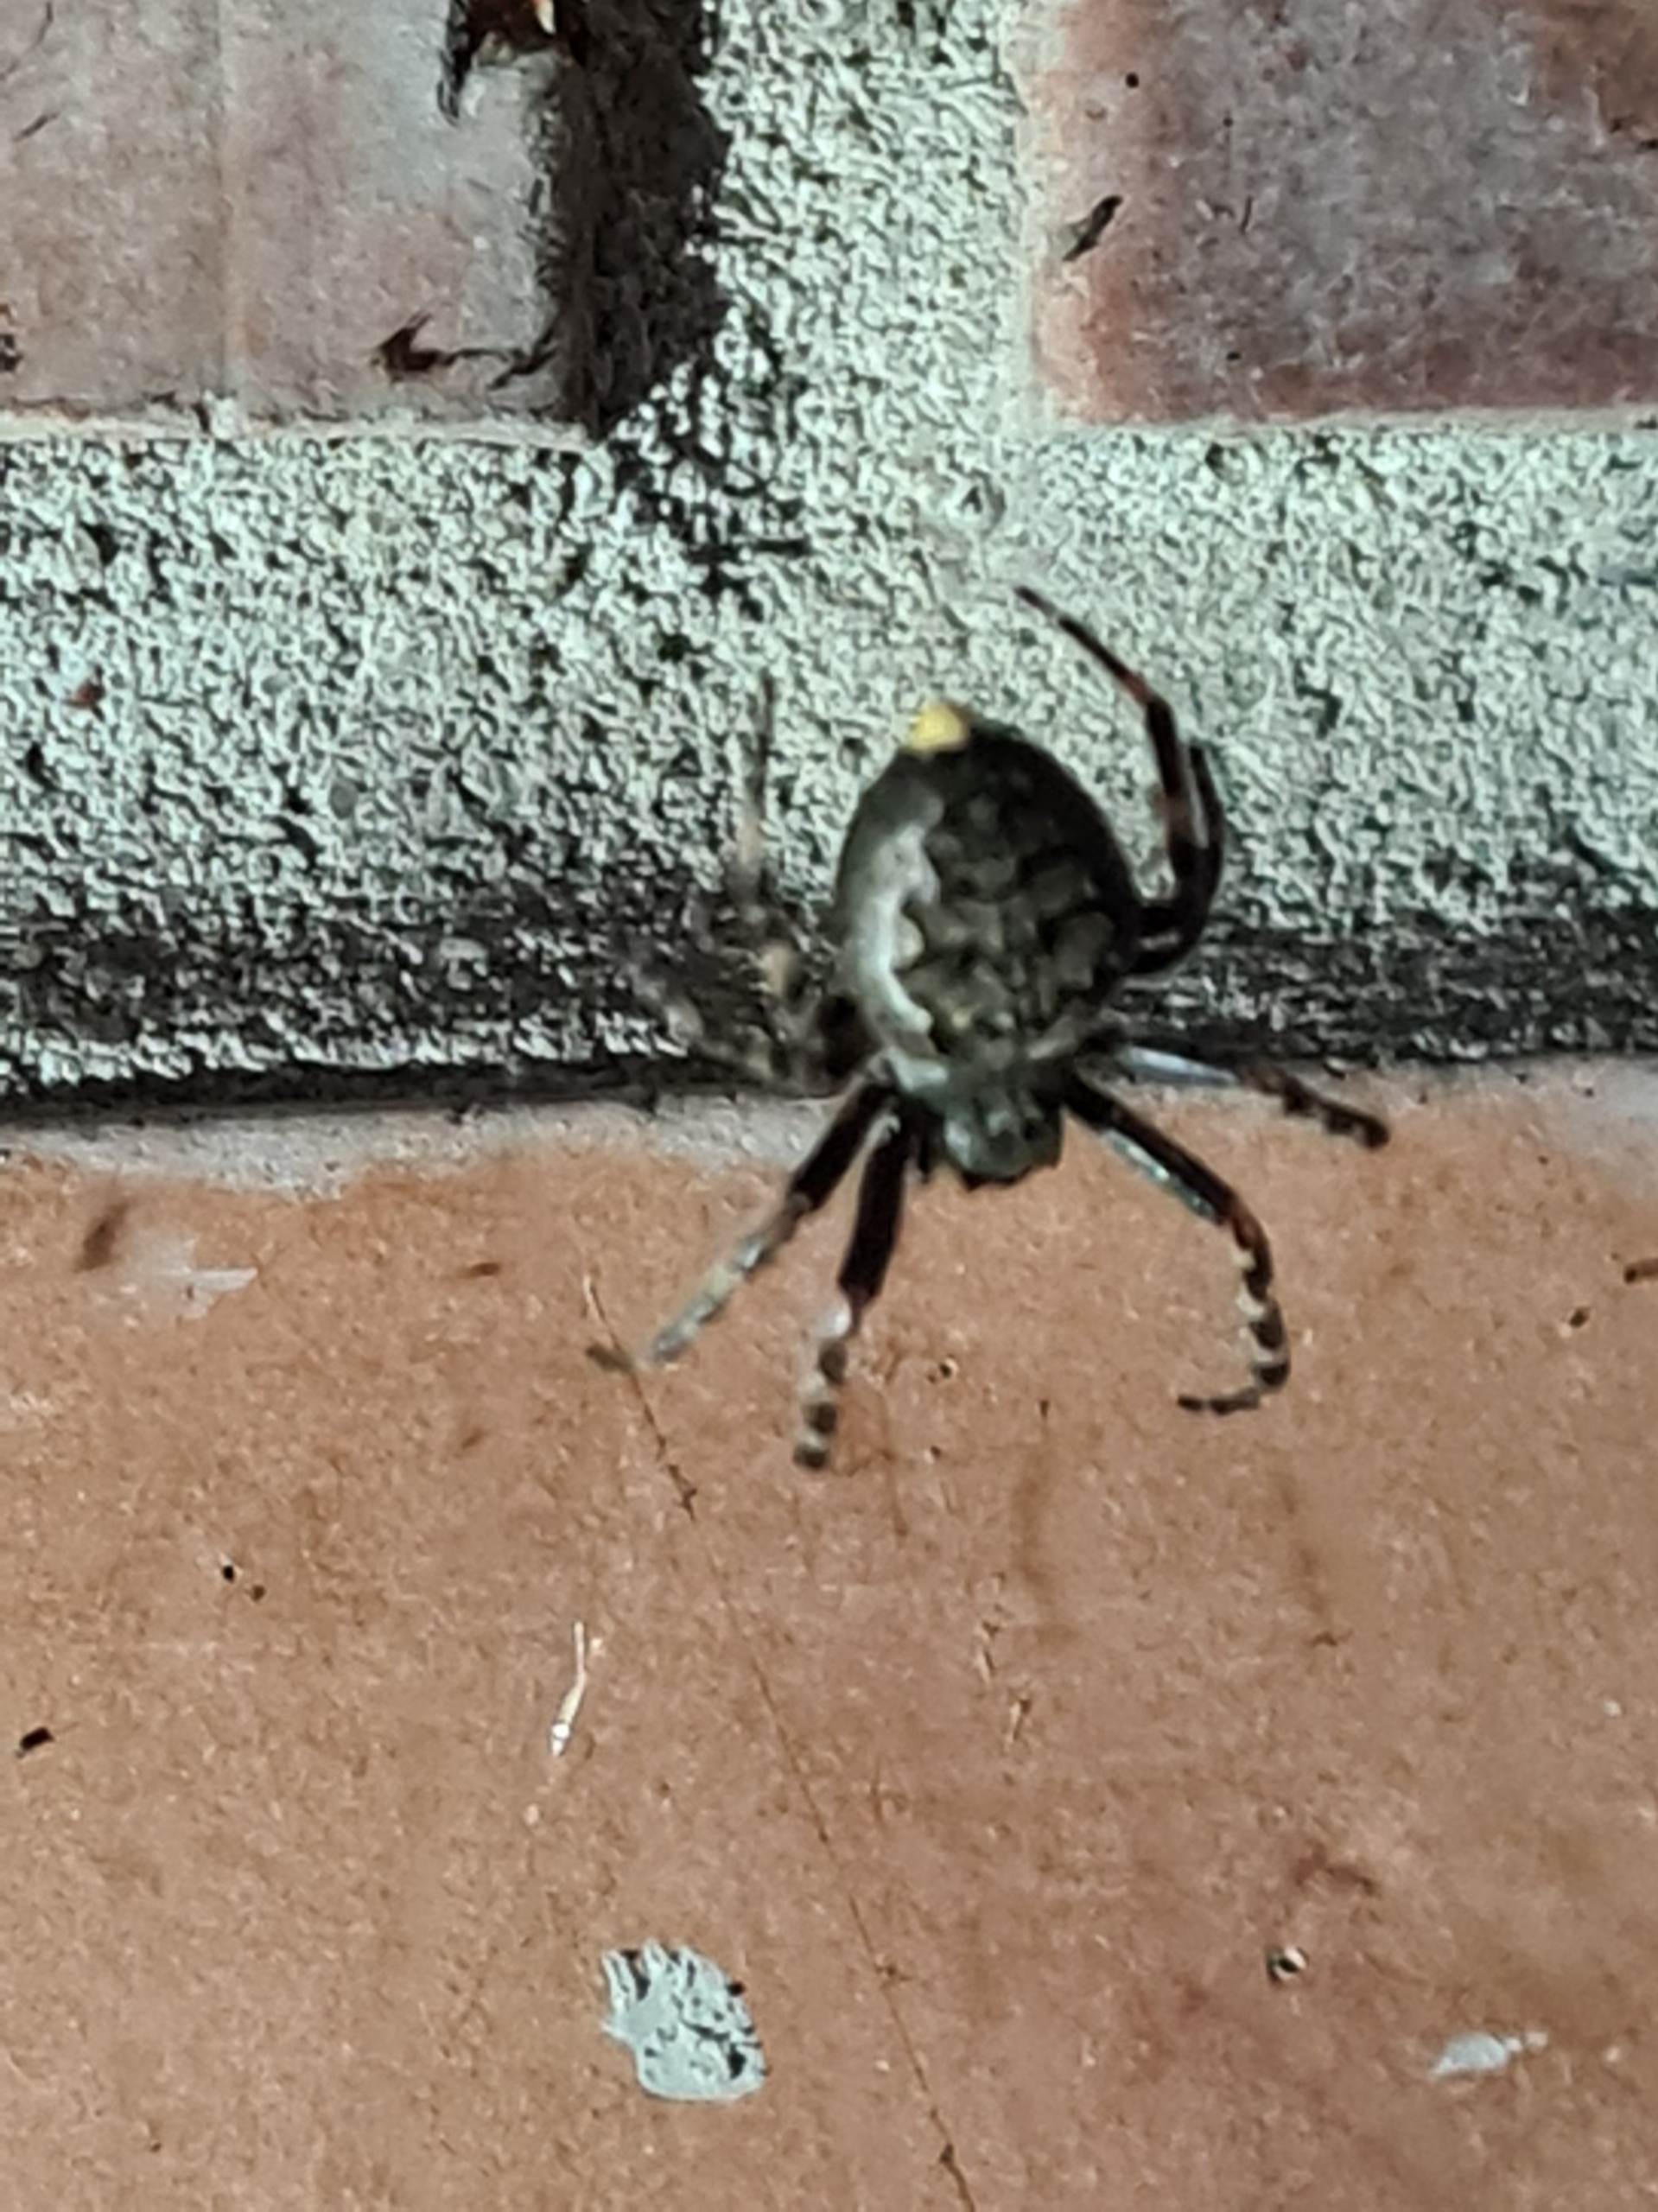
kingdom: Animalia
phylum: Arthropoda
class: Arachnida
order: Araneae
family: Araneidae
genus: Nuctenea
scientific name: Nuctenea umbratica
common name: Flad hjulspinder
